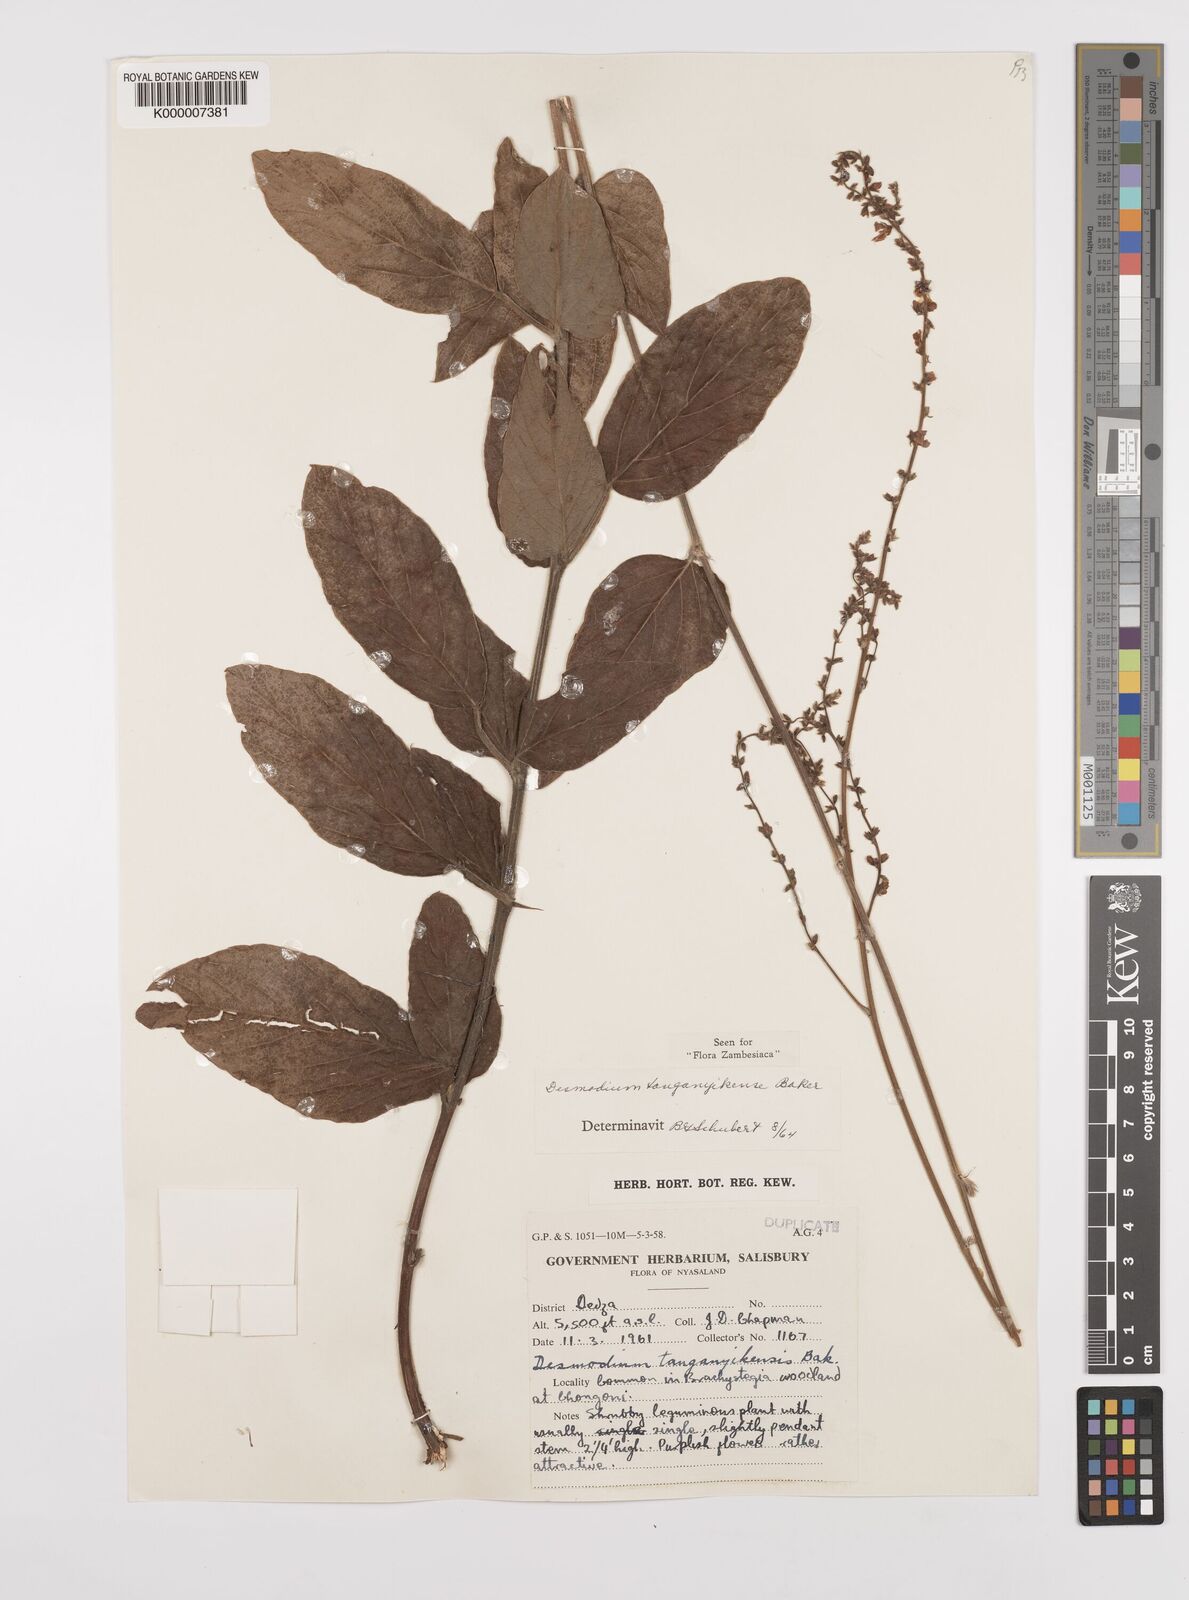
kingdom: Plantae
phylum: Tracheophyta
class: Magnoliopsida
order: Fabales
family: Fabaceae
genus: Pleurolobus
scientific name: Pleurolobus tanganyikensis
